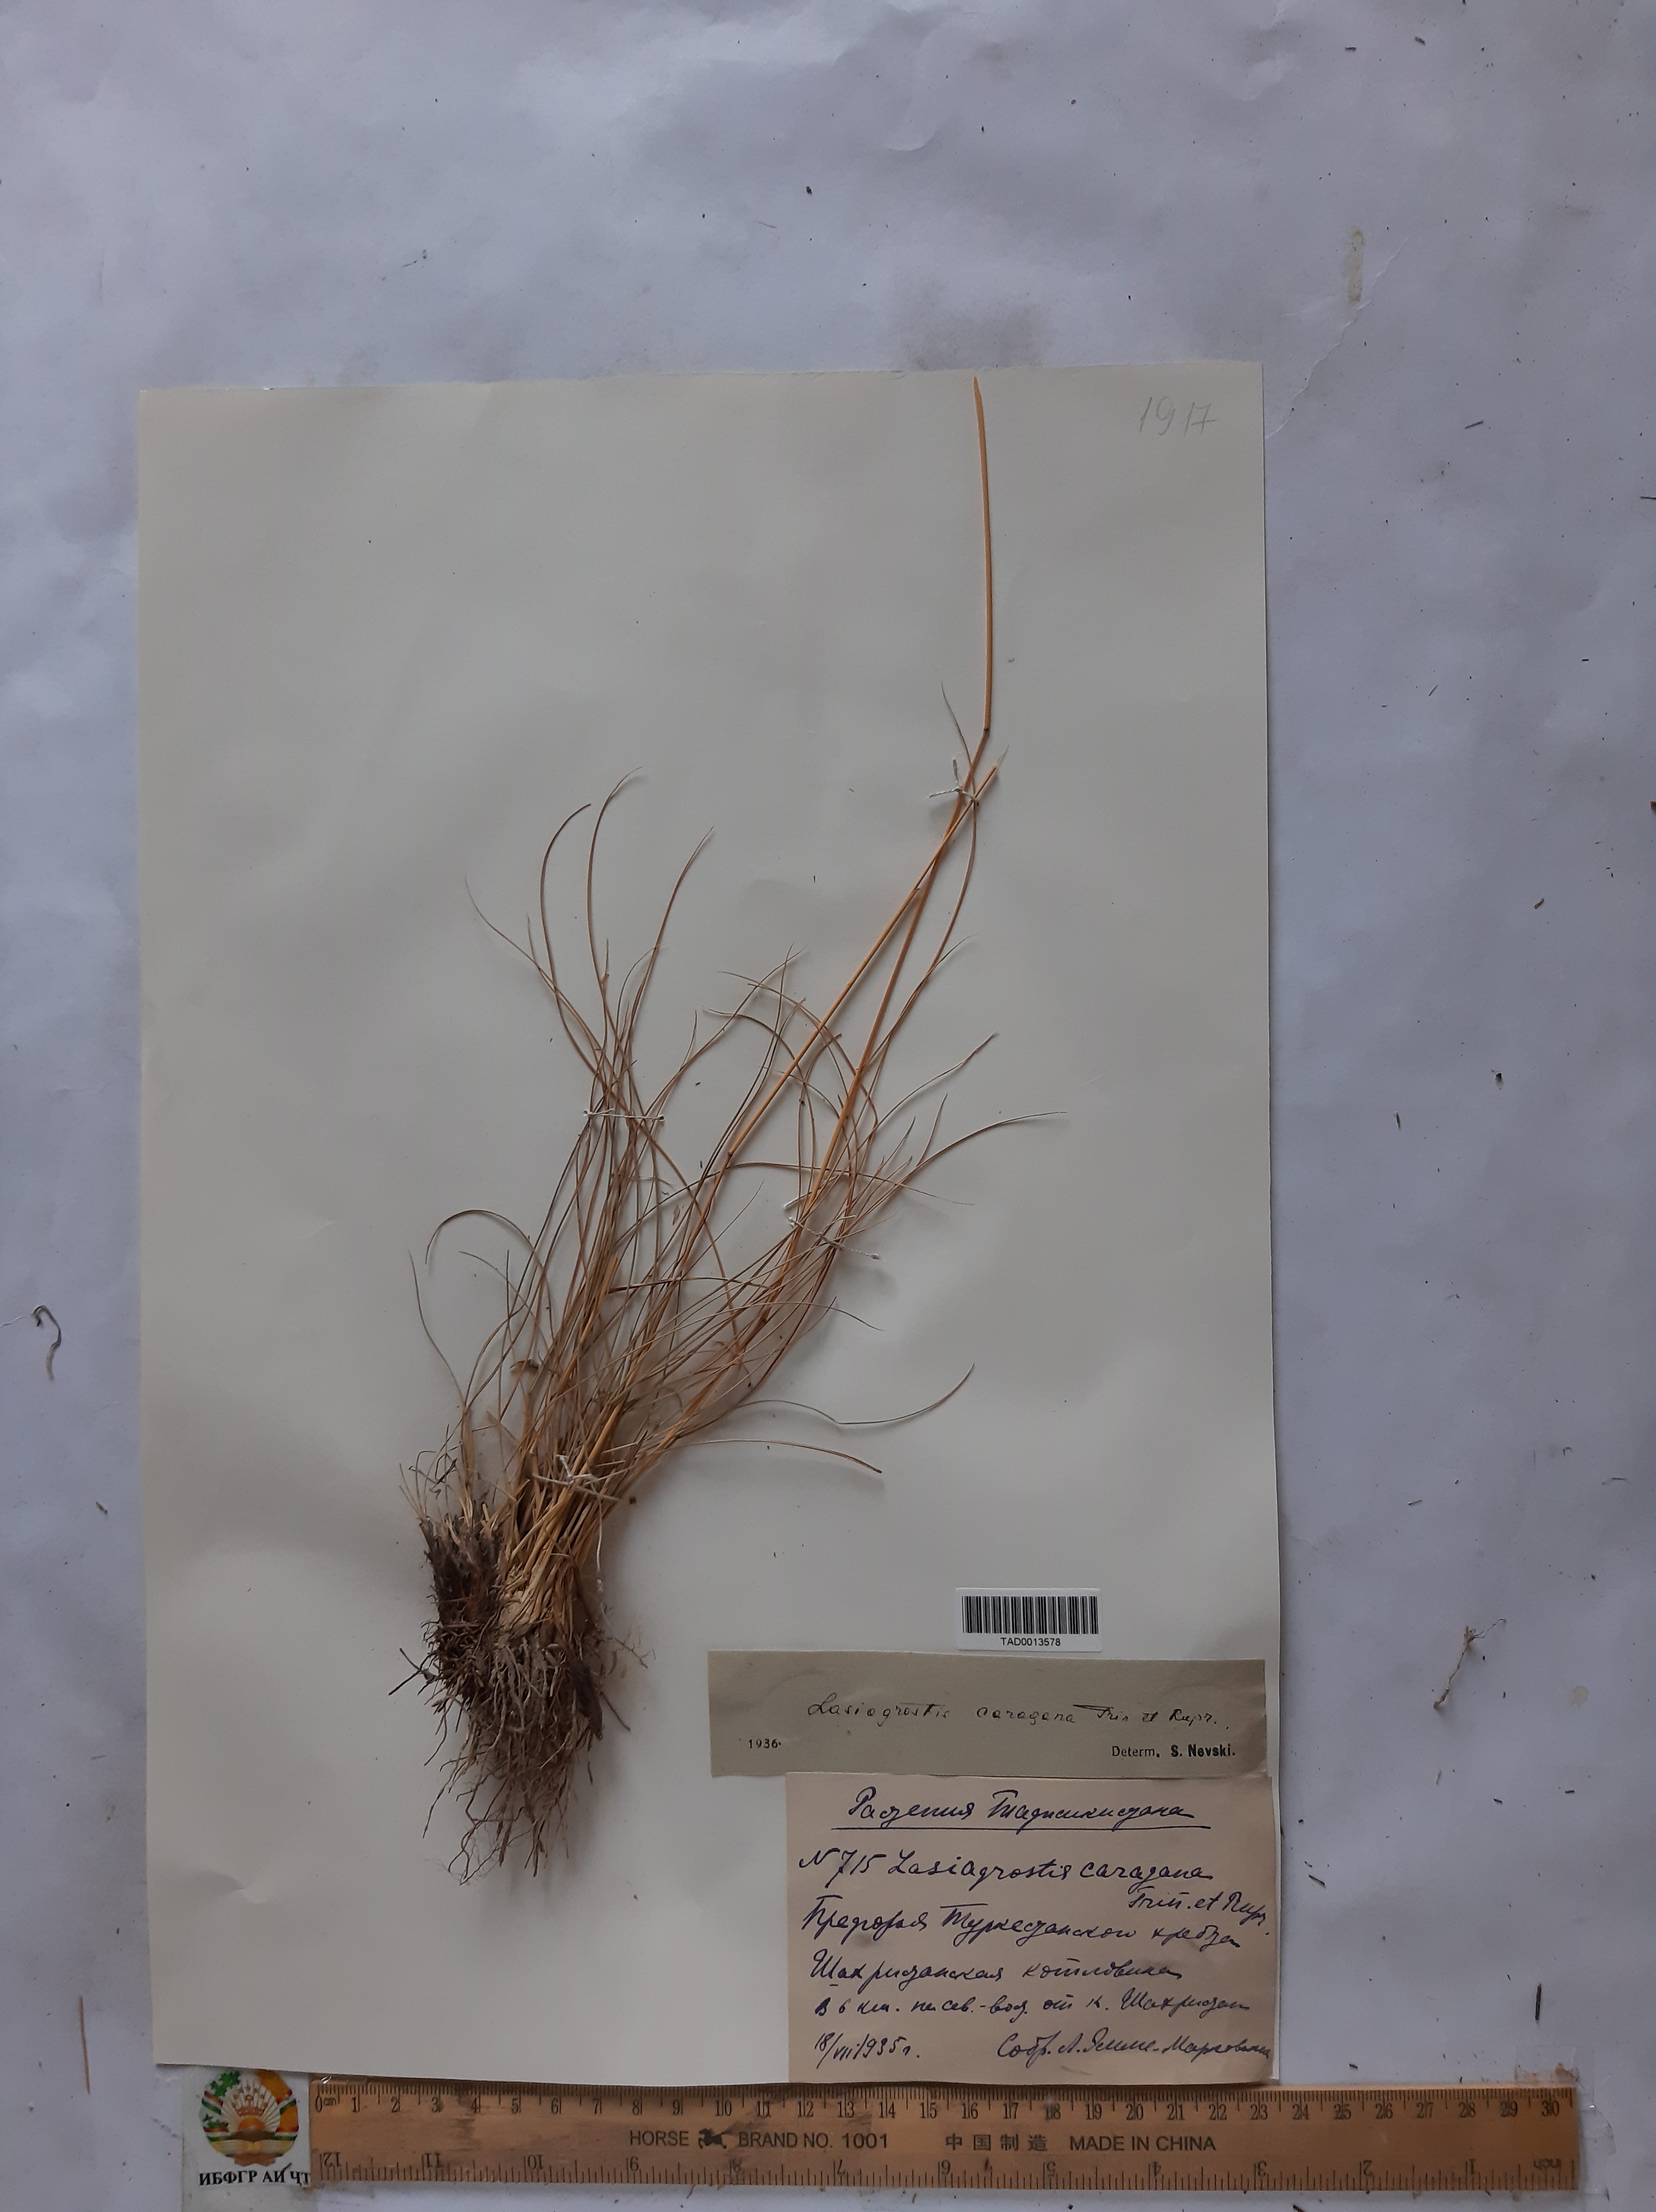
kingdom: Plantae
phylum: Tracheophyta
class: Liliopsida
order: Poales
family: Poaceae
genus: Stipa
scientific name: Stipa conferta
